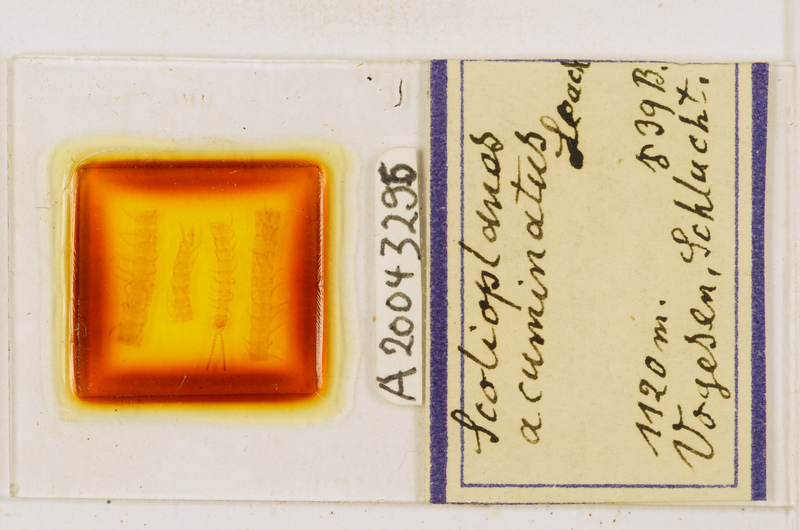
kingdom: Animalia
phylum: Arthropoda
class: Chilopoda
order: Geophilomorpha
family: Linotaeniidae
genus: Strigamia
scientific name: Strigamia acuminata
